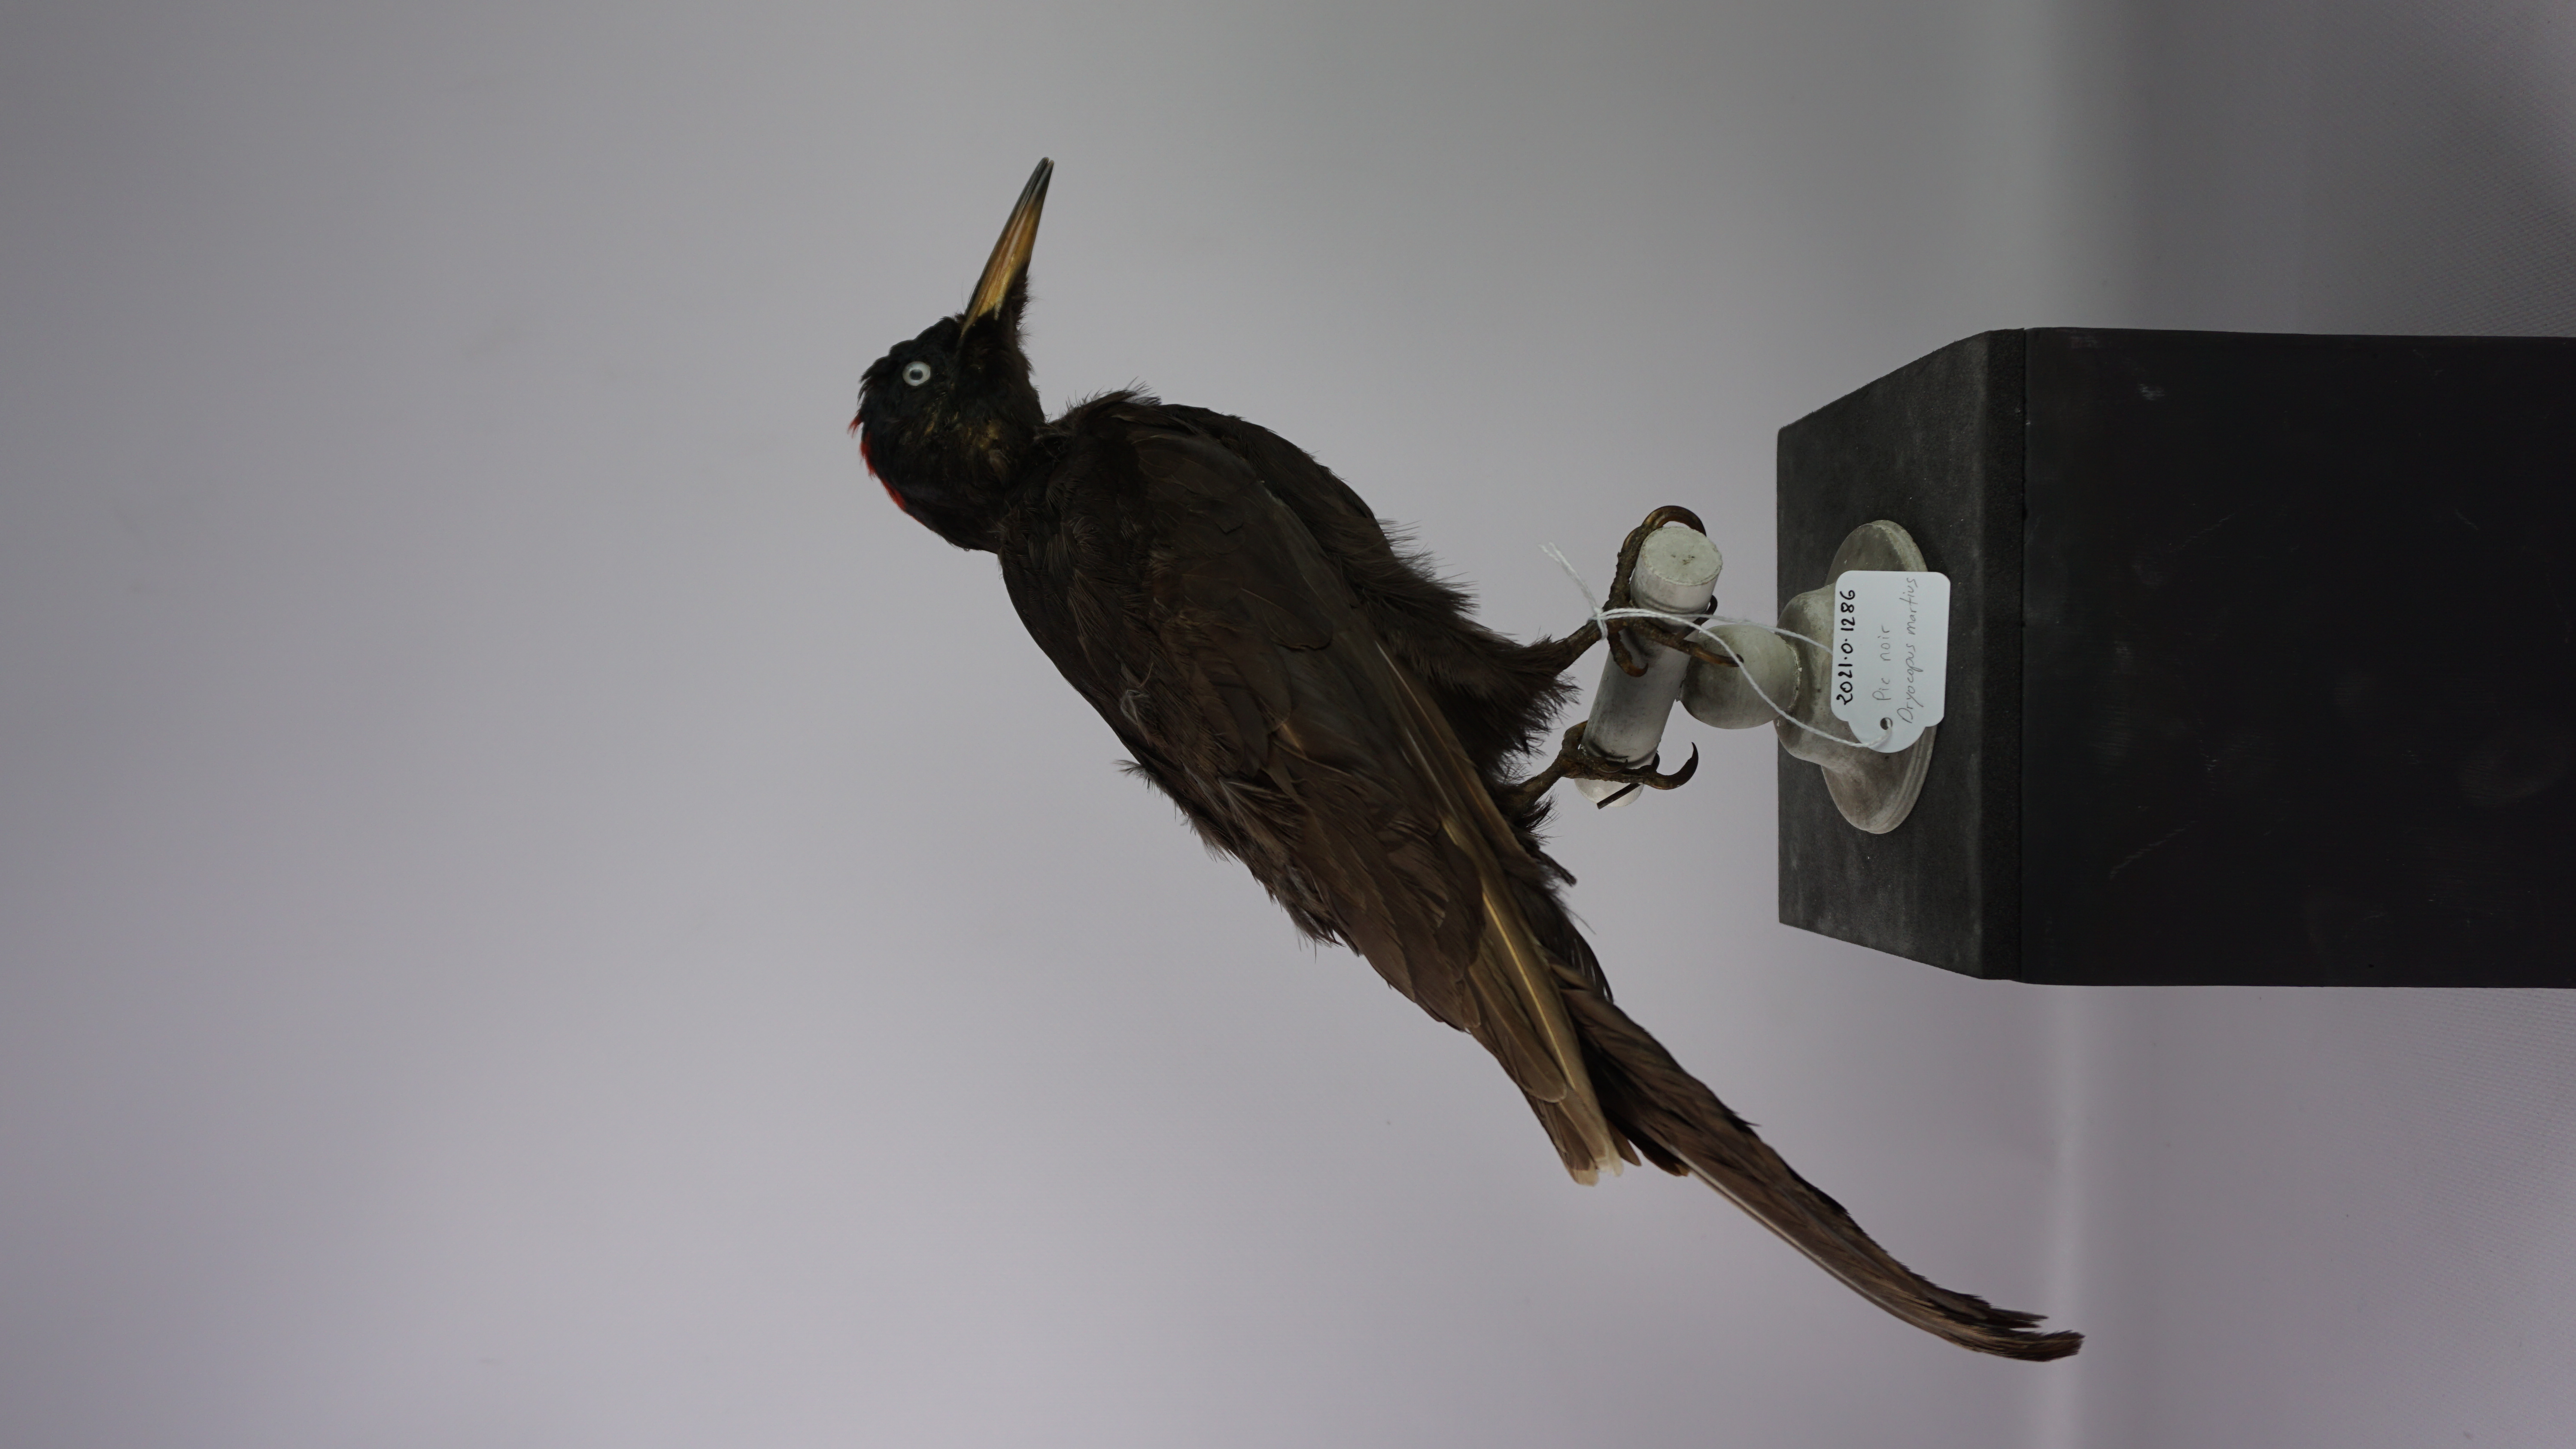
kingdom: Animalia
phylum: Chordata
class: Aves
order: Piciformes
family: Picidae
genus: Dryocopus
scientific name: Dryocopus martius
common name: Black woodpecker
